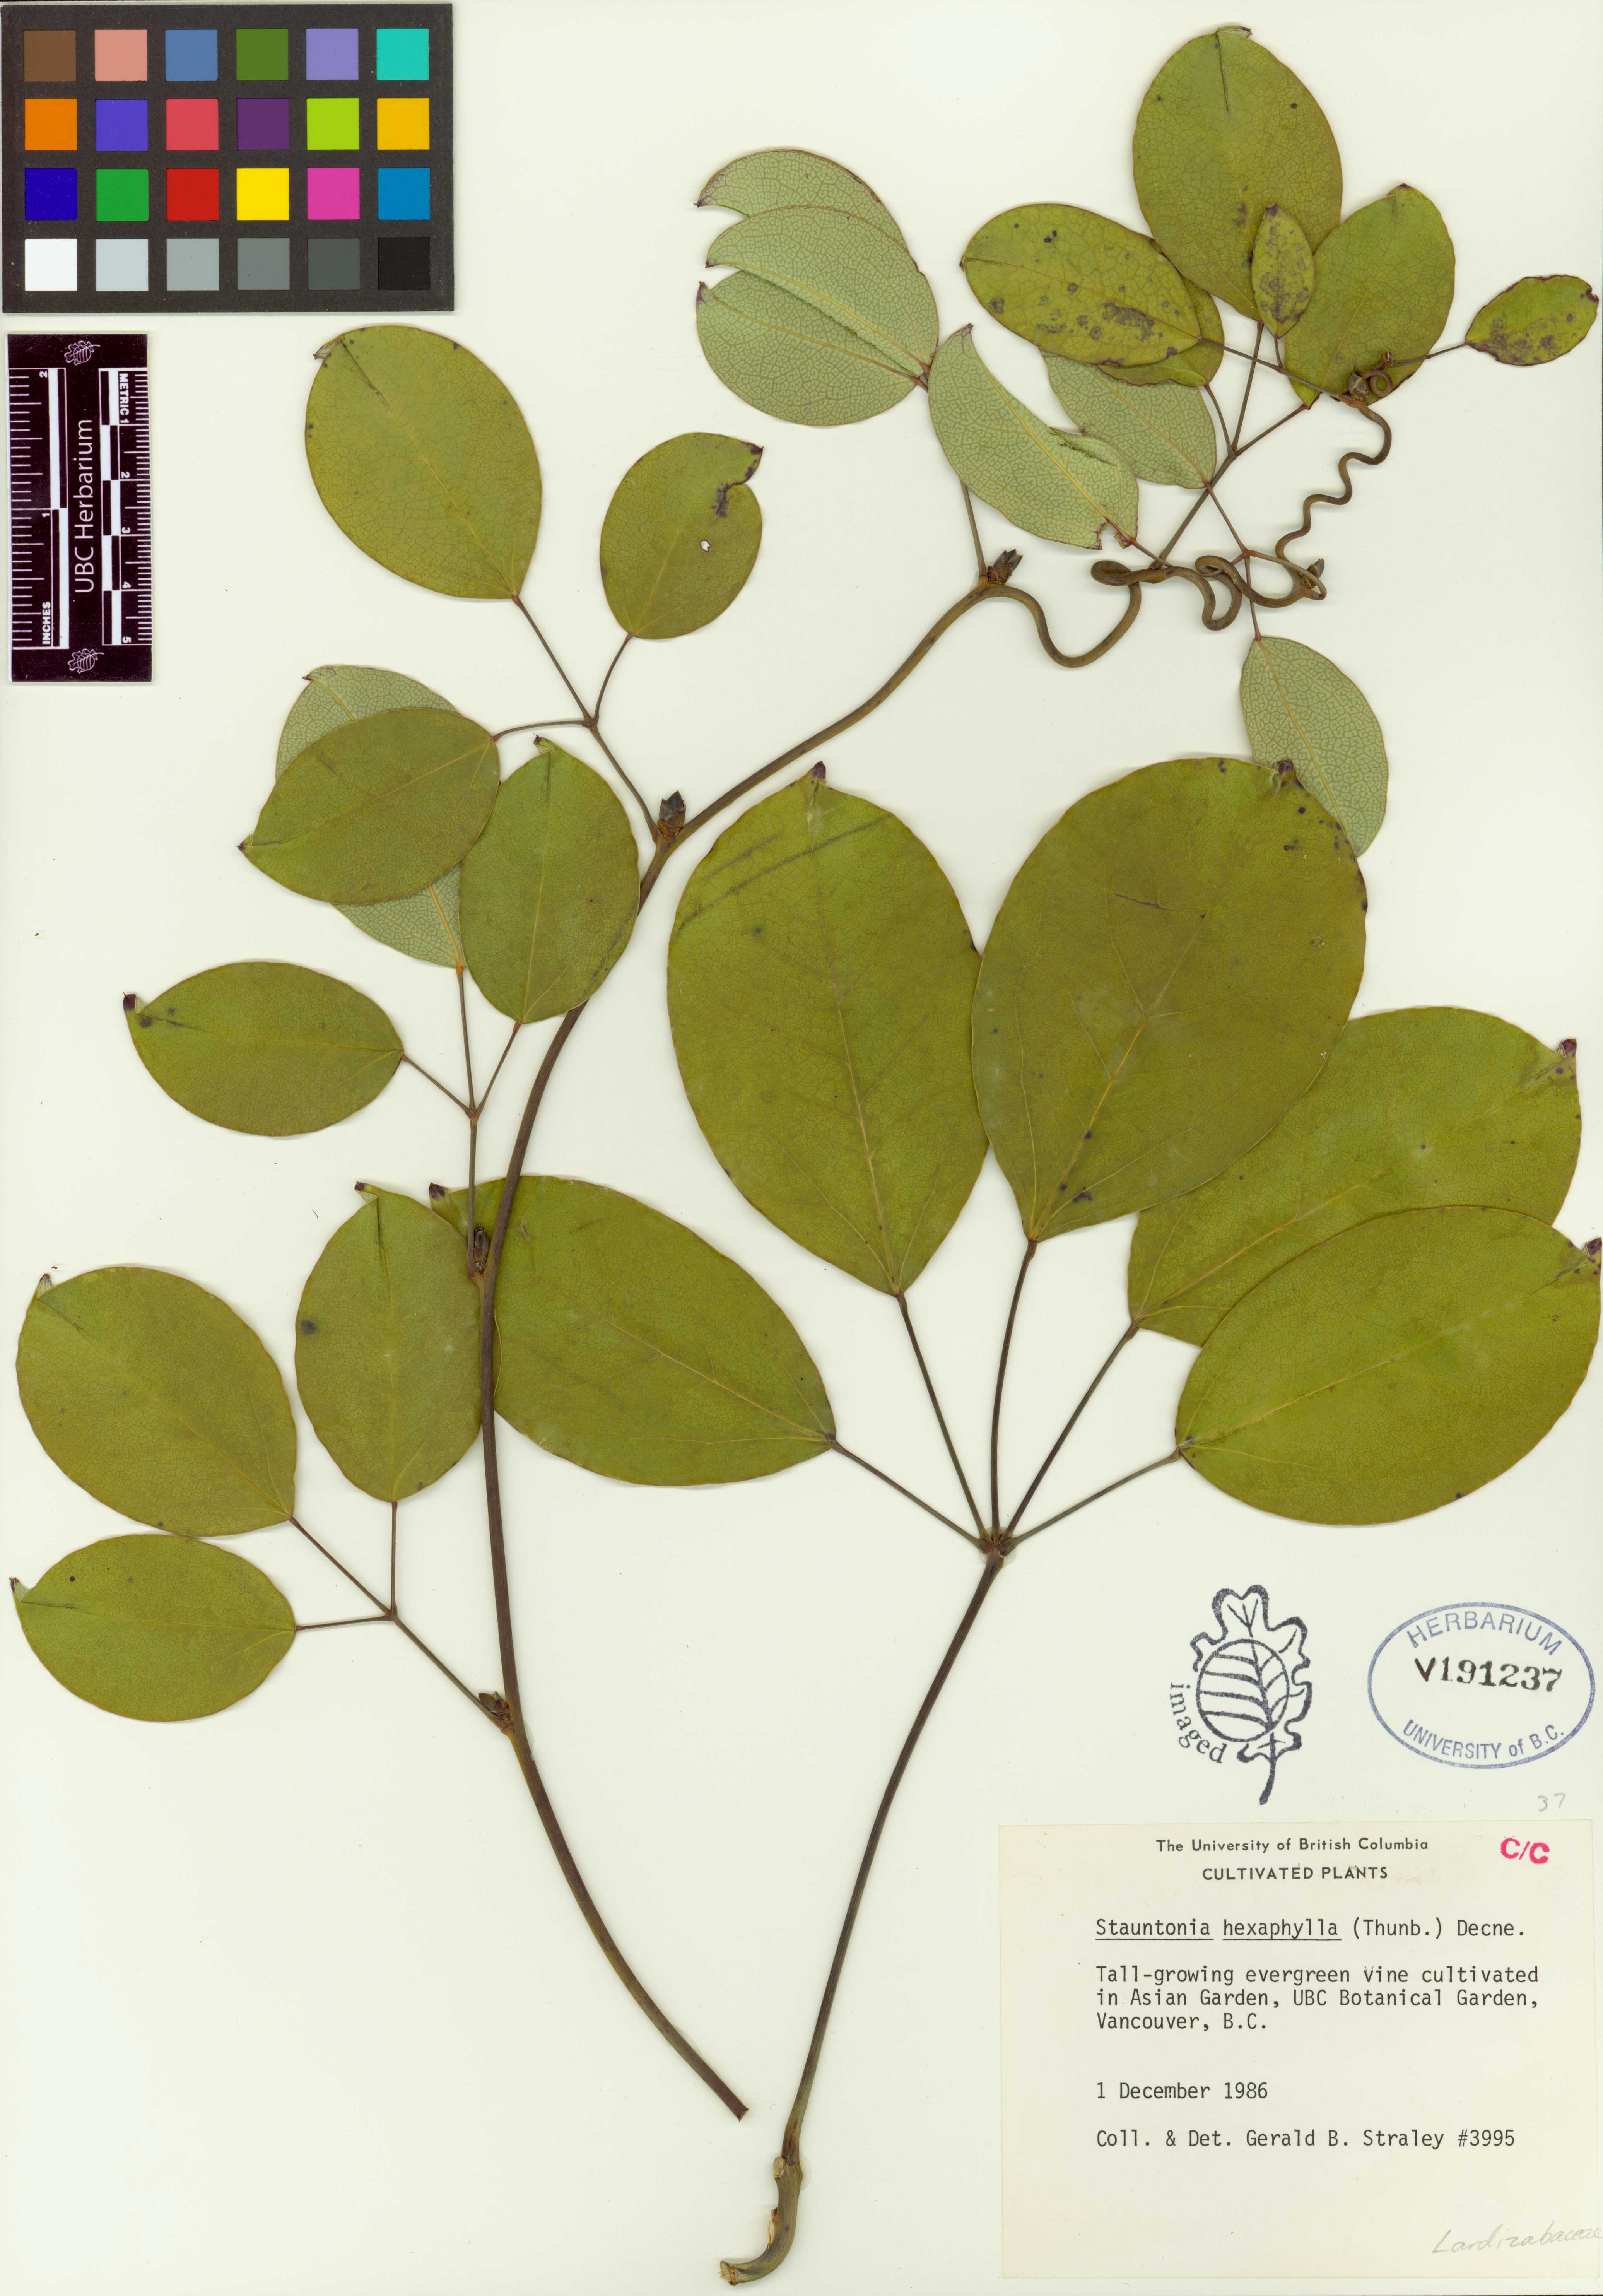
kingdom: Plantae
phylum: Tracheophyta
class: Magnoliopsida
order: Ranunculales
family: Lardizabalaceae
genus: Stauntonia
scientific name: Stauntonia hexaphylla
